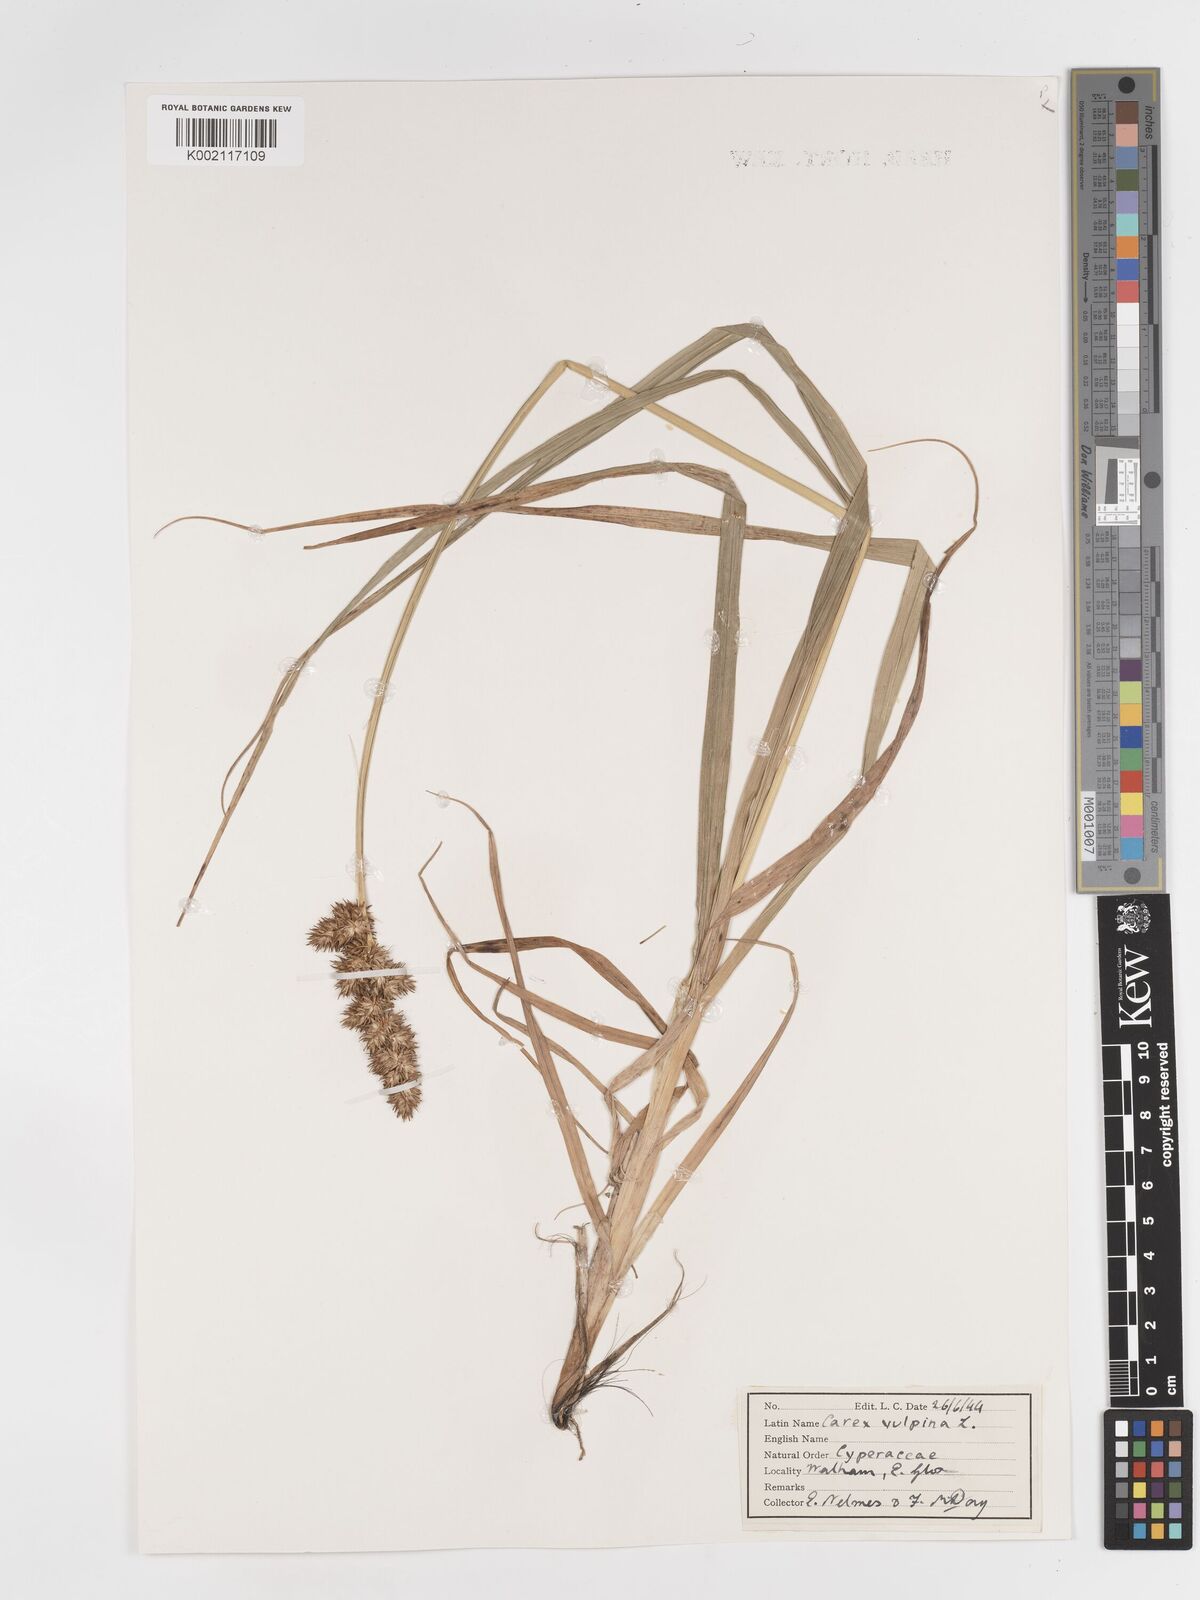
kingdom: Plantae
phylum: Tracheophyta
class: Liliopsida
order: Poales
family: Cyperaceae
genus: Carex
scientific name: Carex vulpina
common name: True fox-sedge
